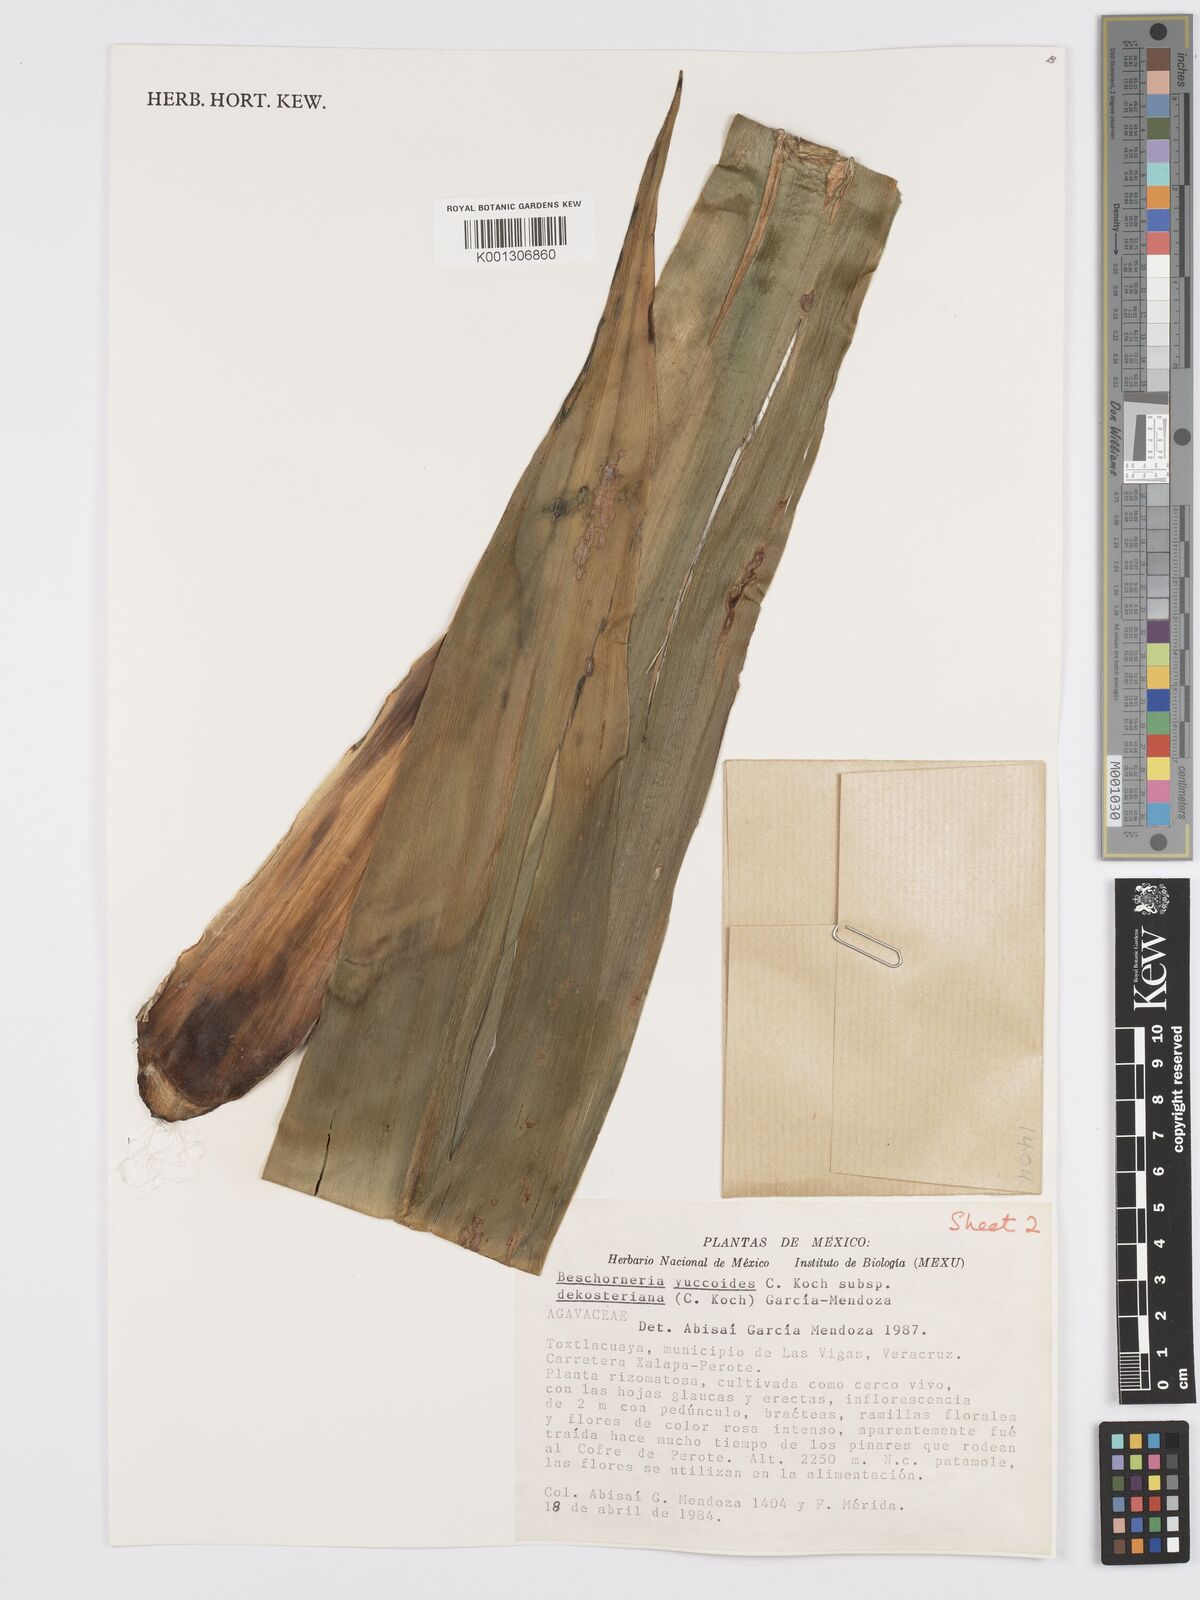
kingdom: Plantae
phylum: Tracheophyta
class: Liliopsida
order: Asparagales
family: Asparagaceae
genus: Beschorneria
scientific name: Beschorneria yuccoides
